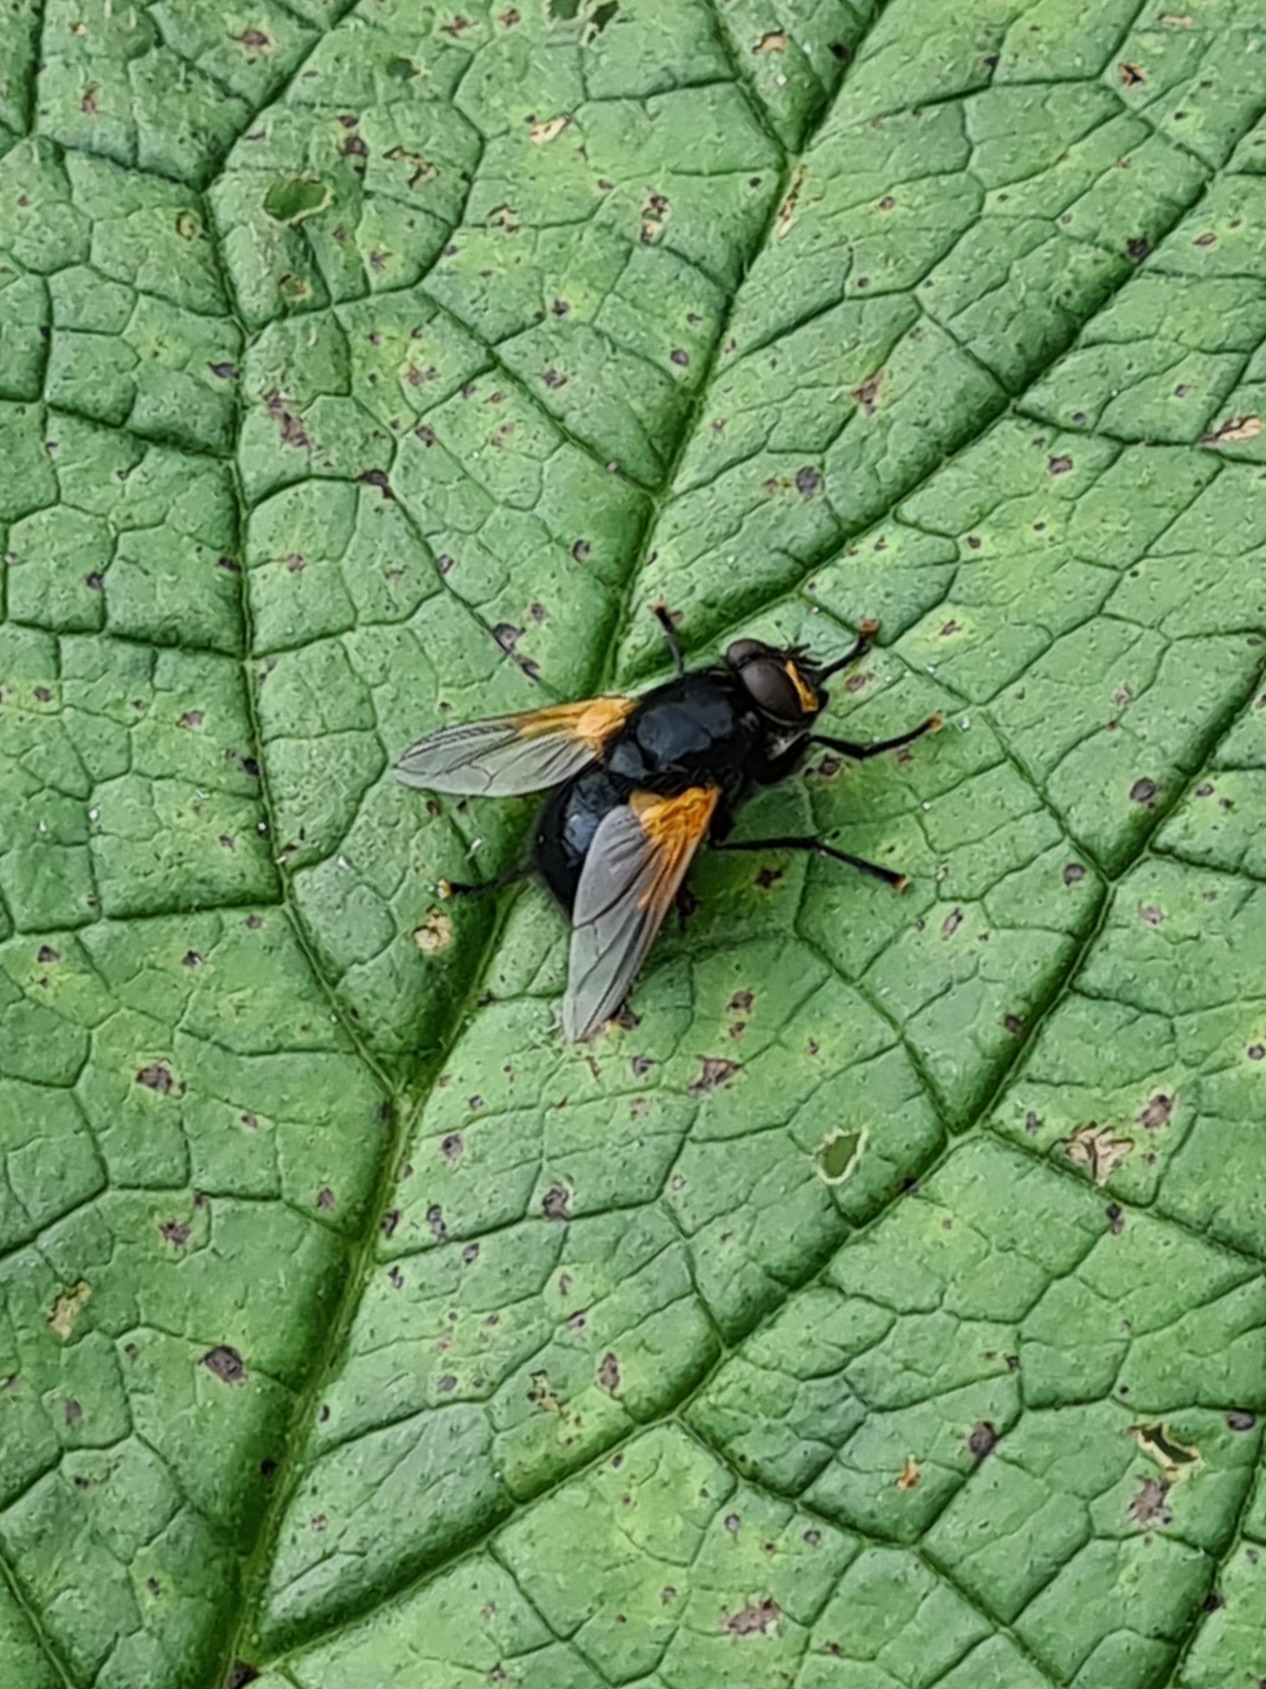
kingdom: Animalia
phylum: Arthropoda
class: Insecta
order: Diptera
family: Muscidae
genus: Mesembrina
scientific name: Mesembrina meridiana
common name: Gulvinget flue
